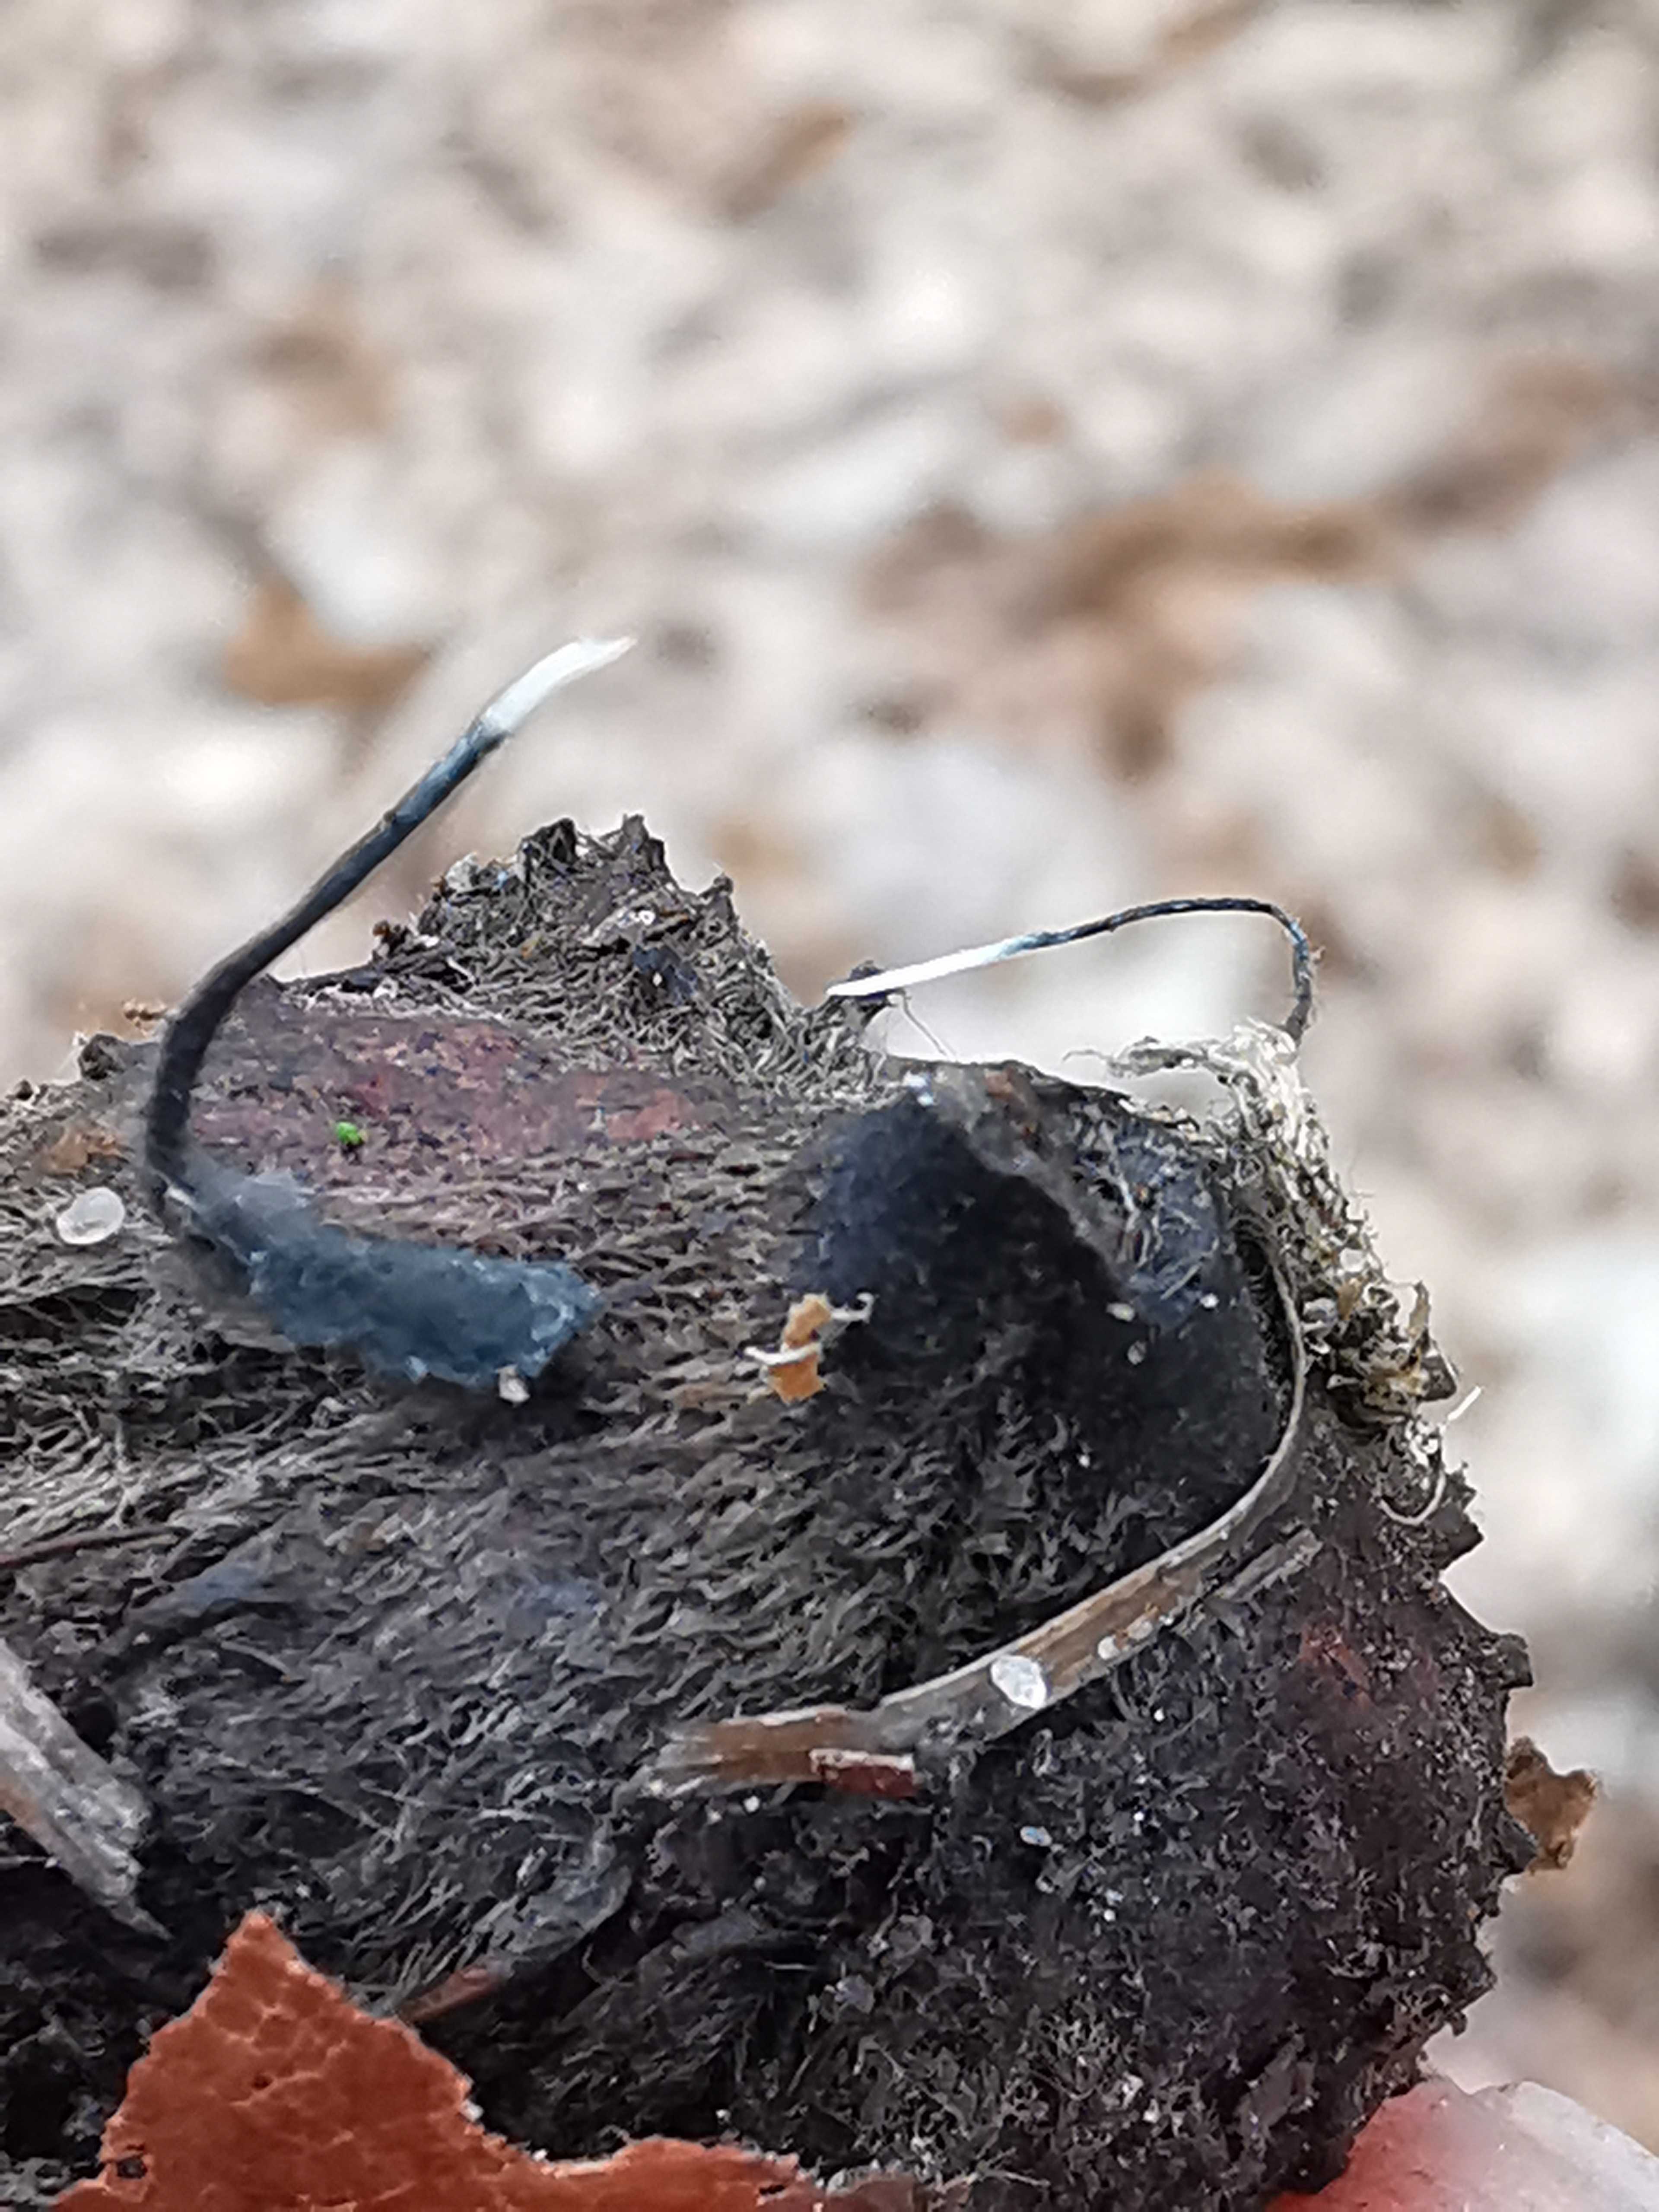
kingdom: Fungi
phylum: Ascomycota
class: Sordariomycetes
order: Xylariales
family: Xylariaceae
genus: Xylaria
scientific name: Xylaria carpophila
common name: bogskål-stødsvamp
